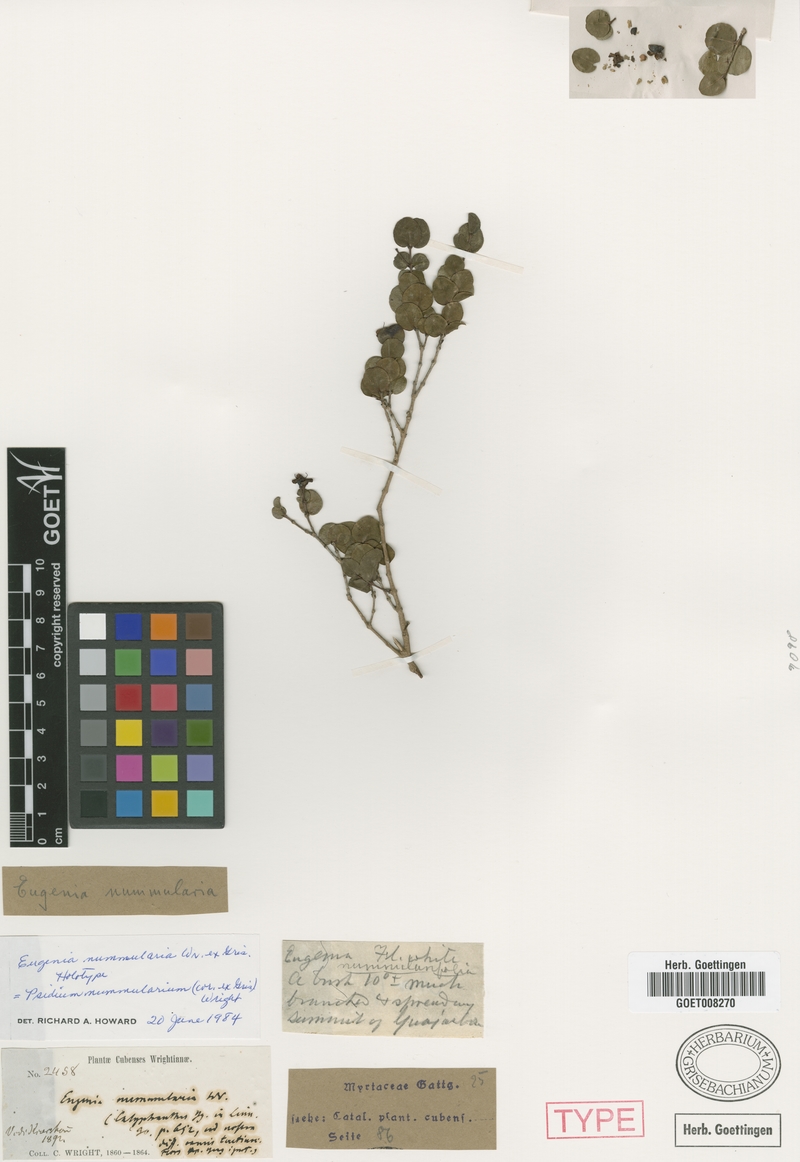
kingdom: Plantae
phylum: Tracheophyta
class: Magnoliopsida
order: Myrtales
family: Myrtaceae
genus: Psidium
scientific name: Psidium nummularia
